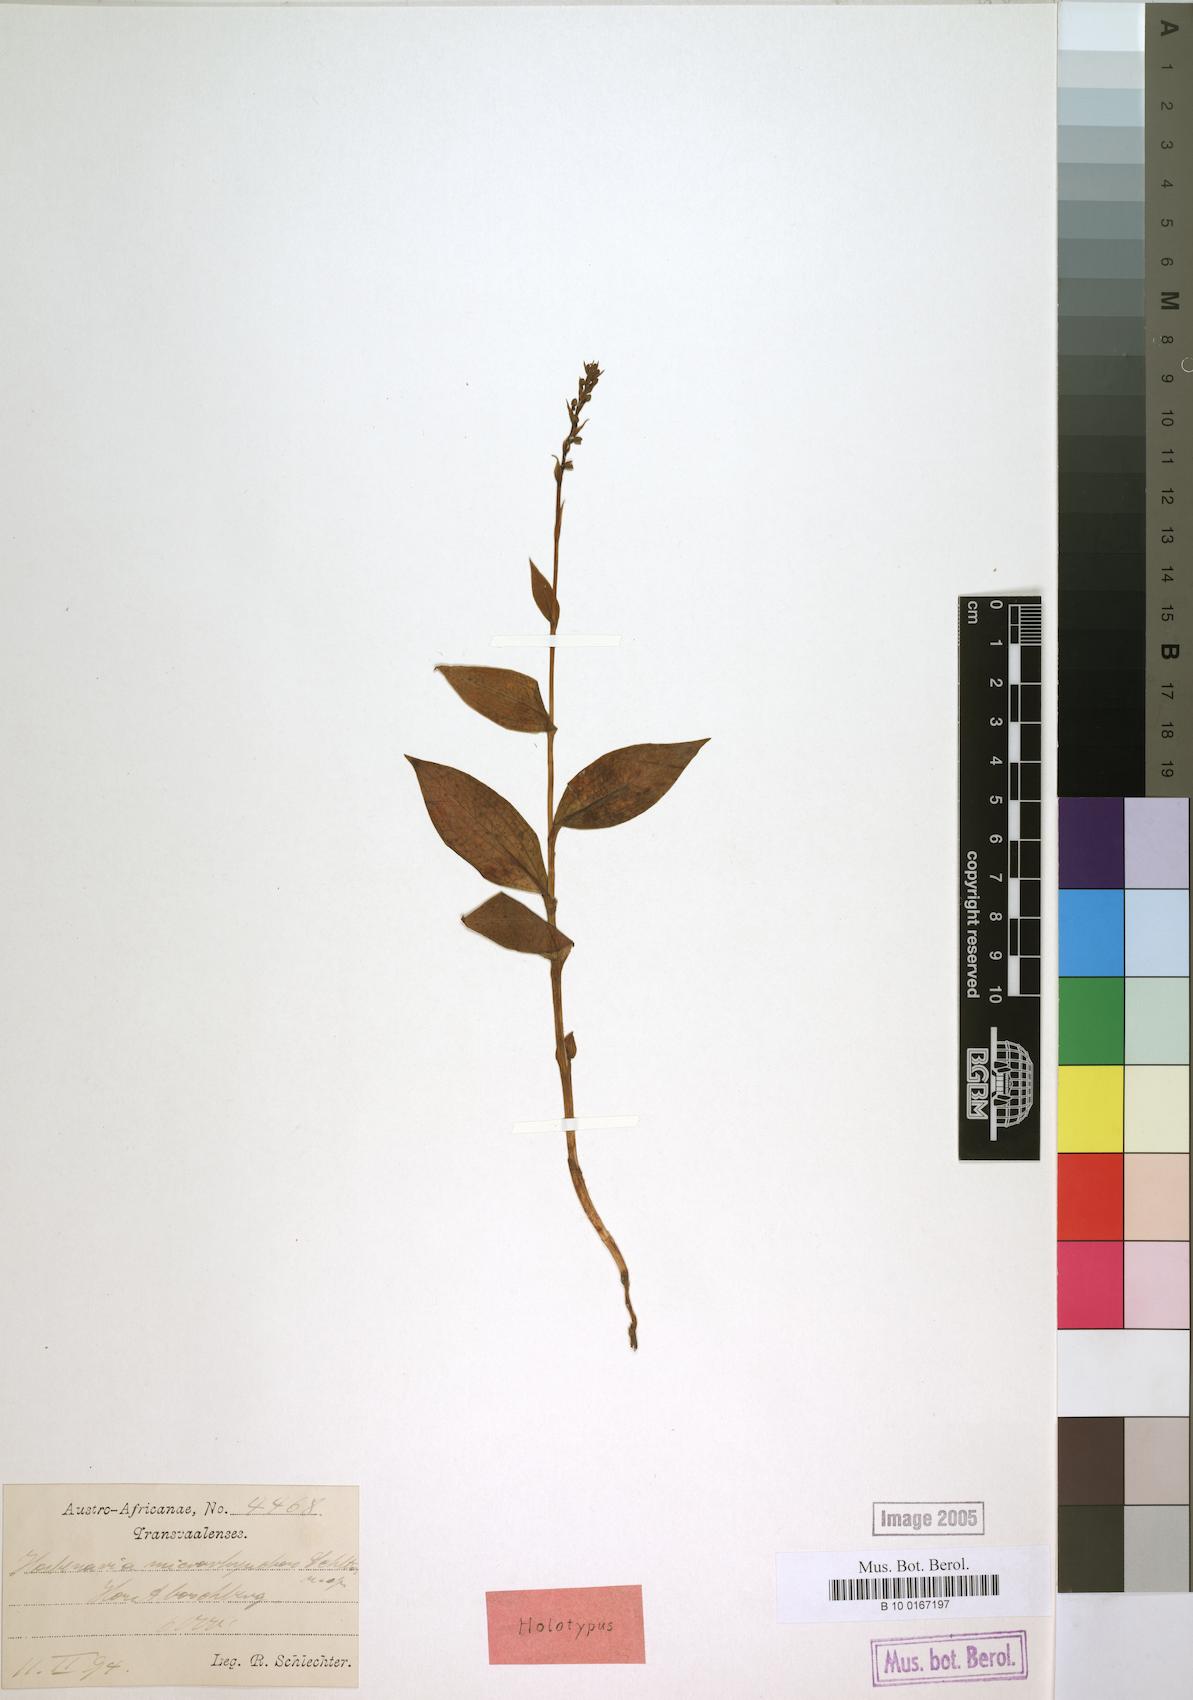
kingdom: Plantae
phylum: Tracheophyta
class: Liliopsida
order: Asparagales
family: Orchidaceae
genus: Habenaria
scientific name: Habenaria petitiana
